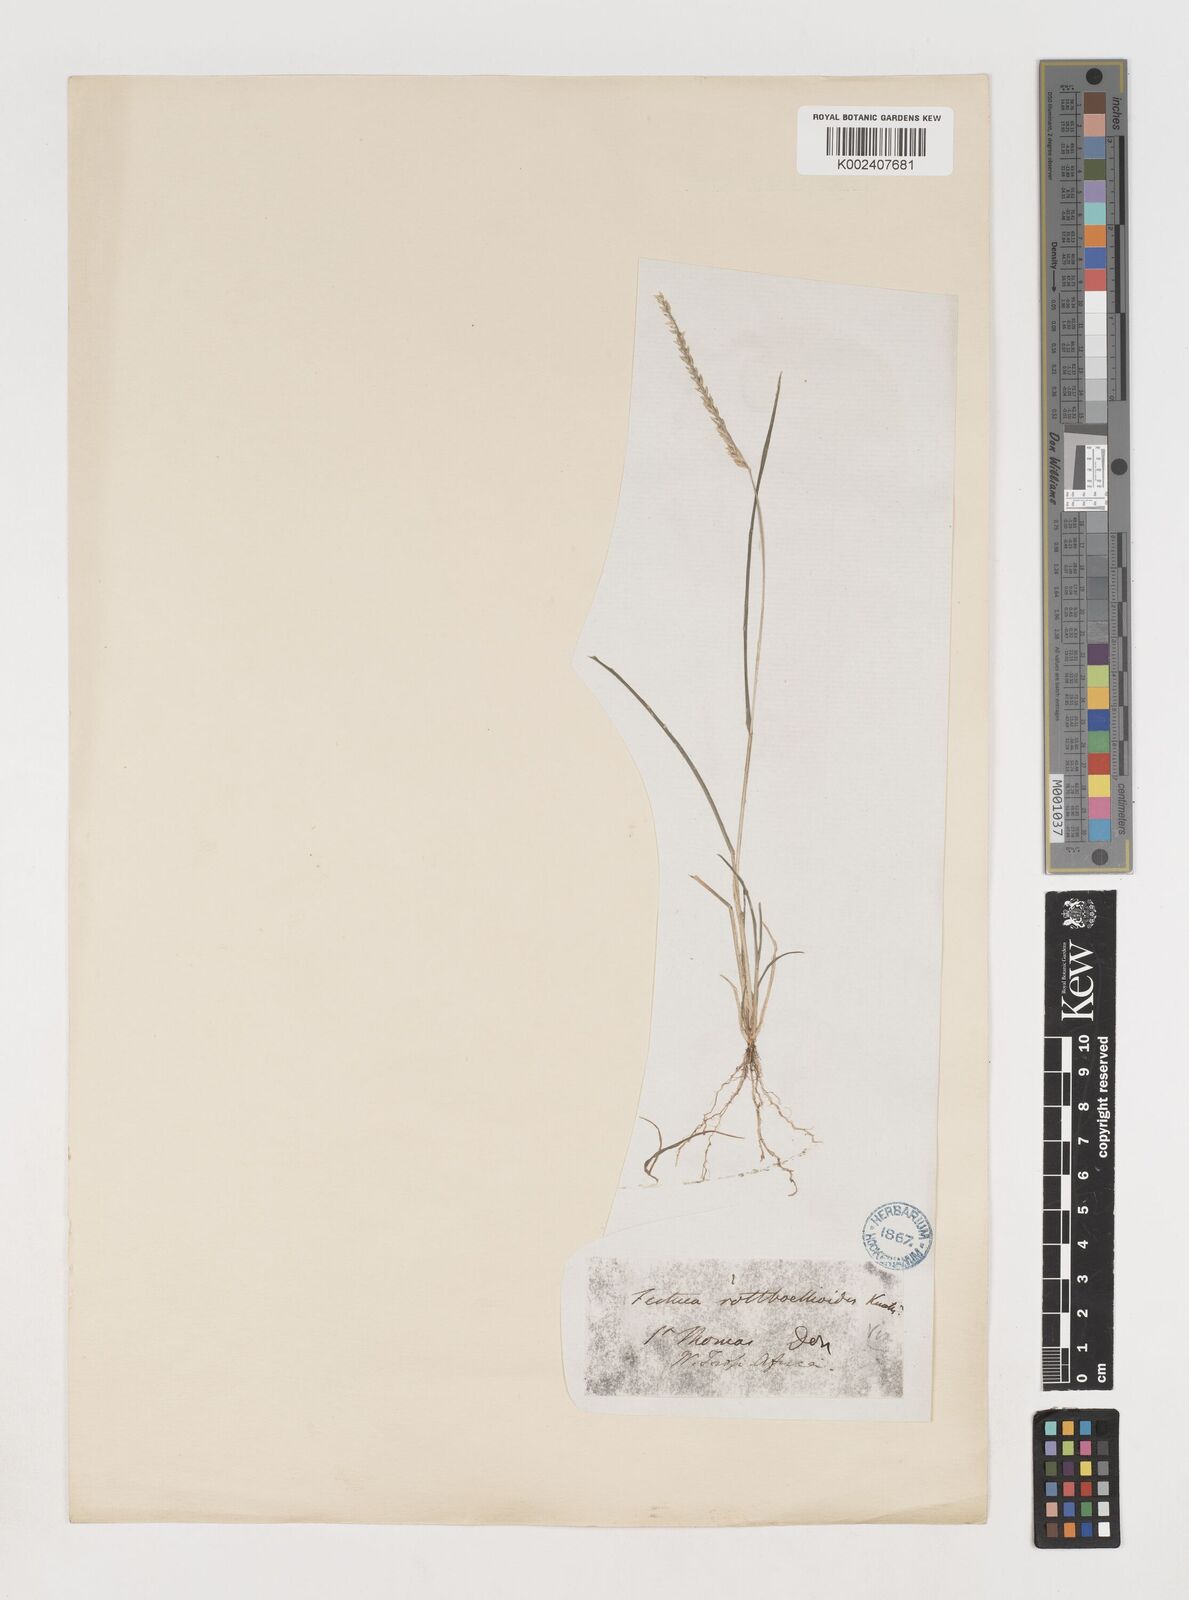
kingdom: Plantae
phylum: Tracheophyta
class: Liliopsida
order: Poales
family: Poaceae
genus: Eleusine
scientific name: Eleusine indica
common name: Yard-grass
